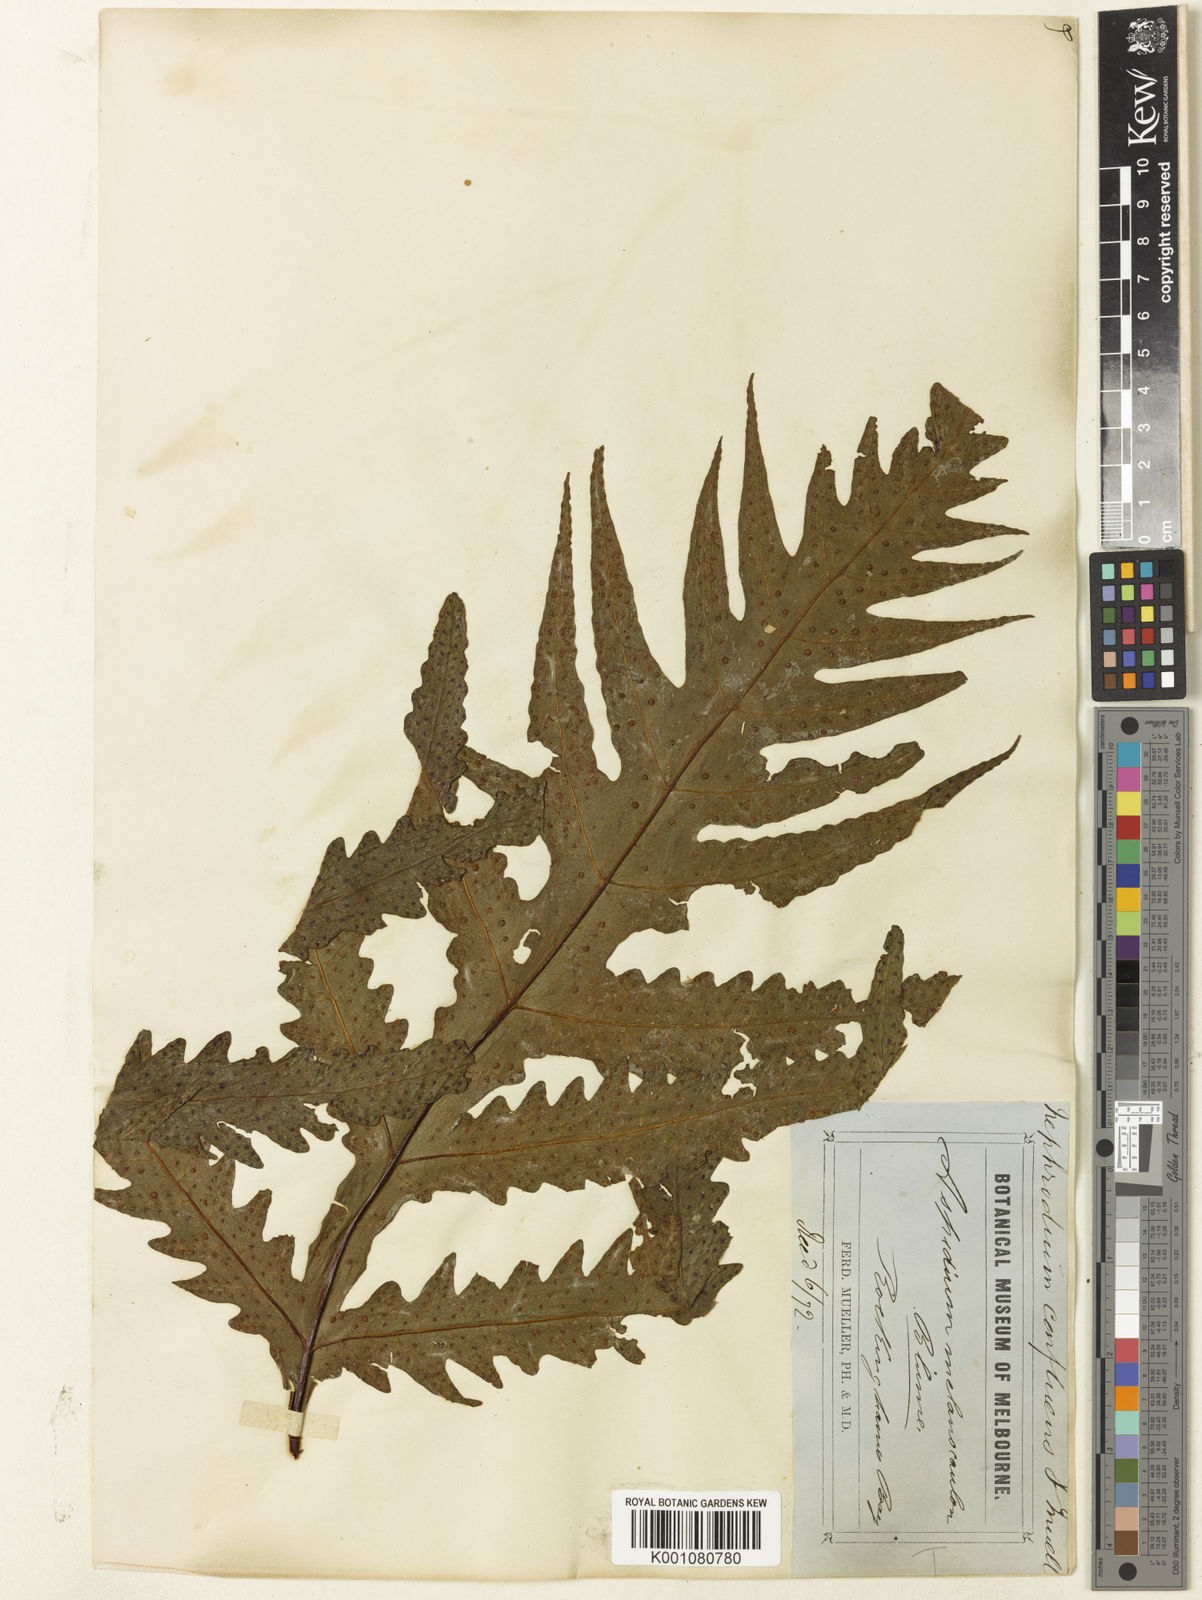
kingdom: Plantae
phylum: Tracheophyta
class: Polypodiopsida
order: Polypodiales
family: Tectariaceae
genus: Tectaria
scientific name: Tectaria confluens
